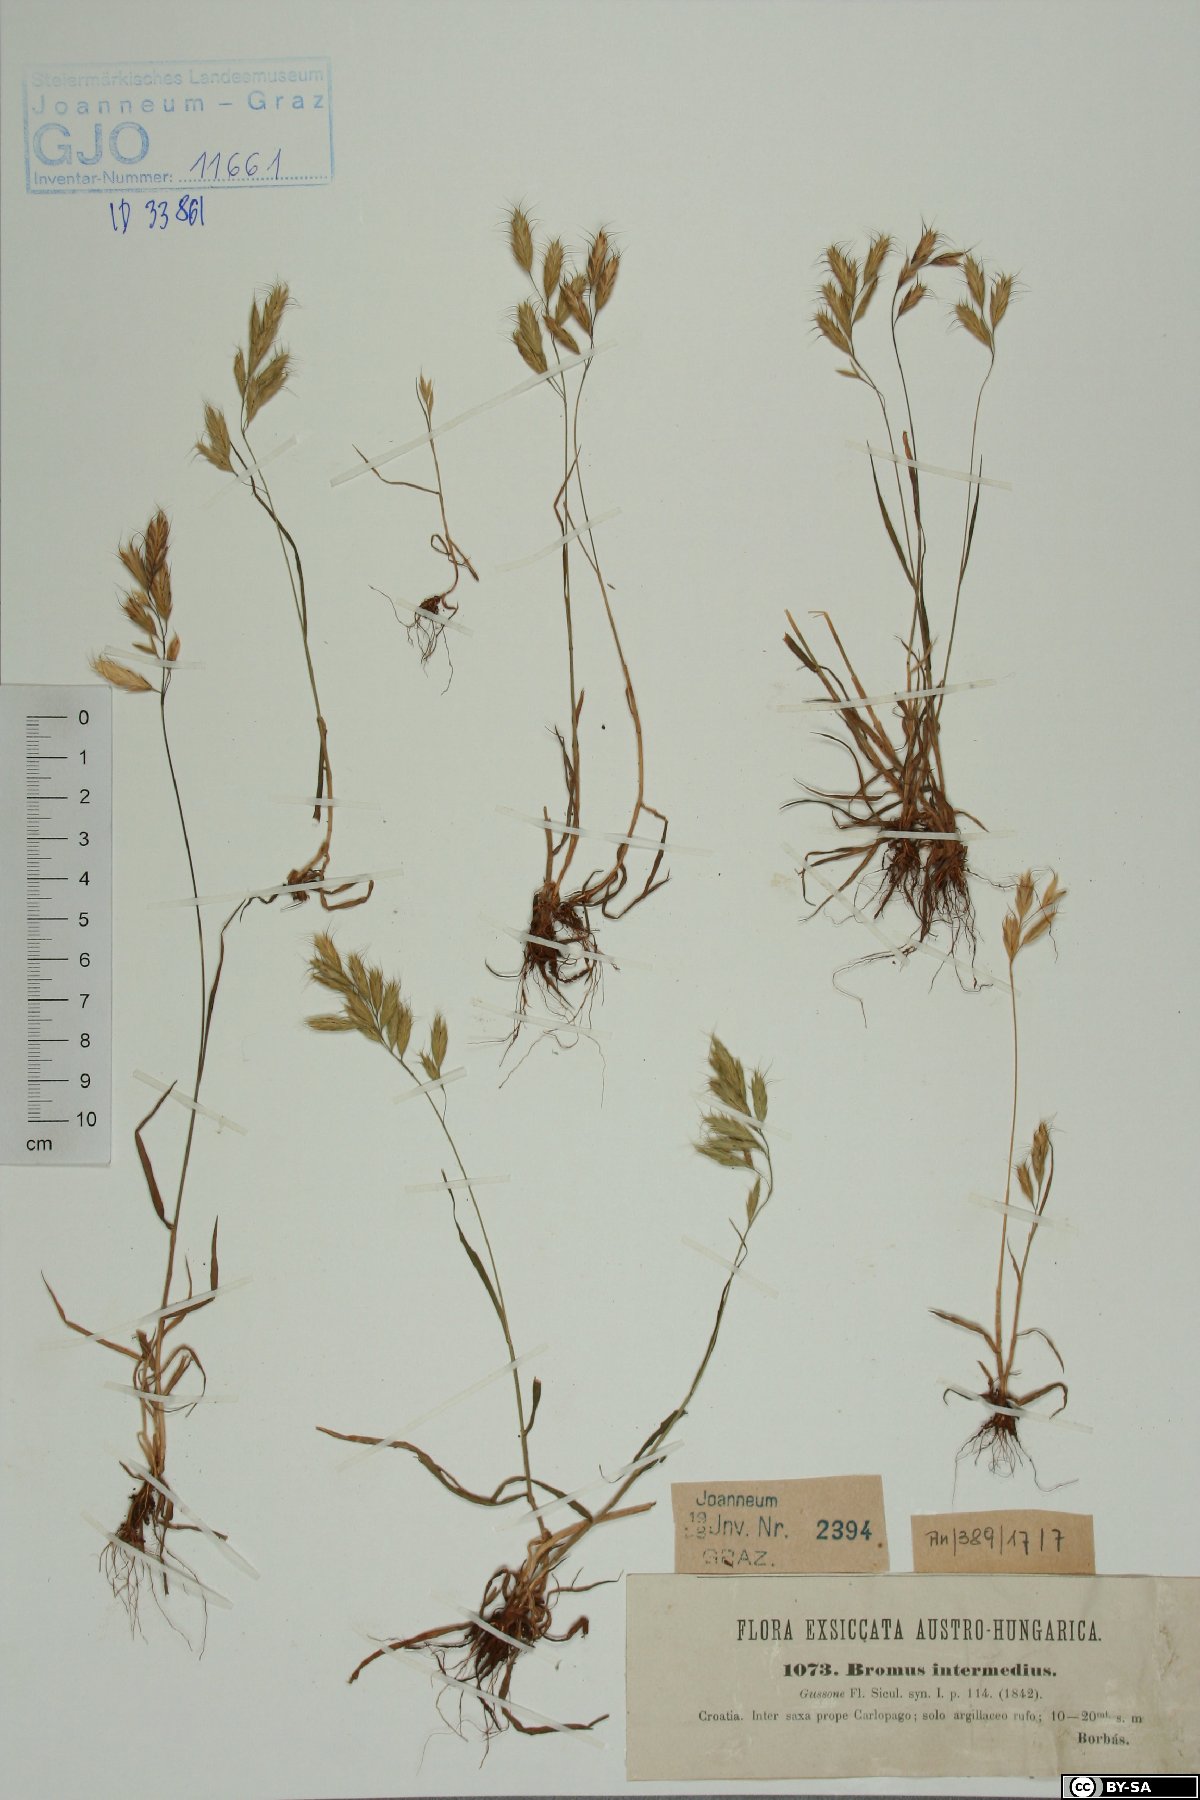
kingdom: Plantae
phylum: Tracheophyta
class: Liliopsida
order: Poales
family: Poaceae
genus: Bromus
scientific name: Bromus intermedius
